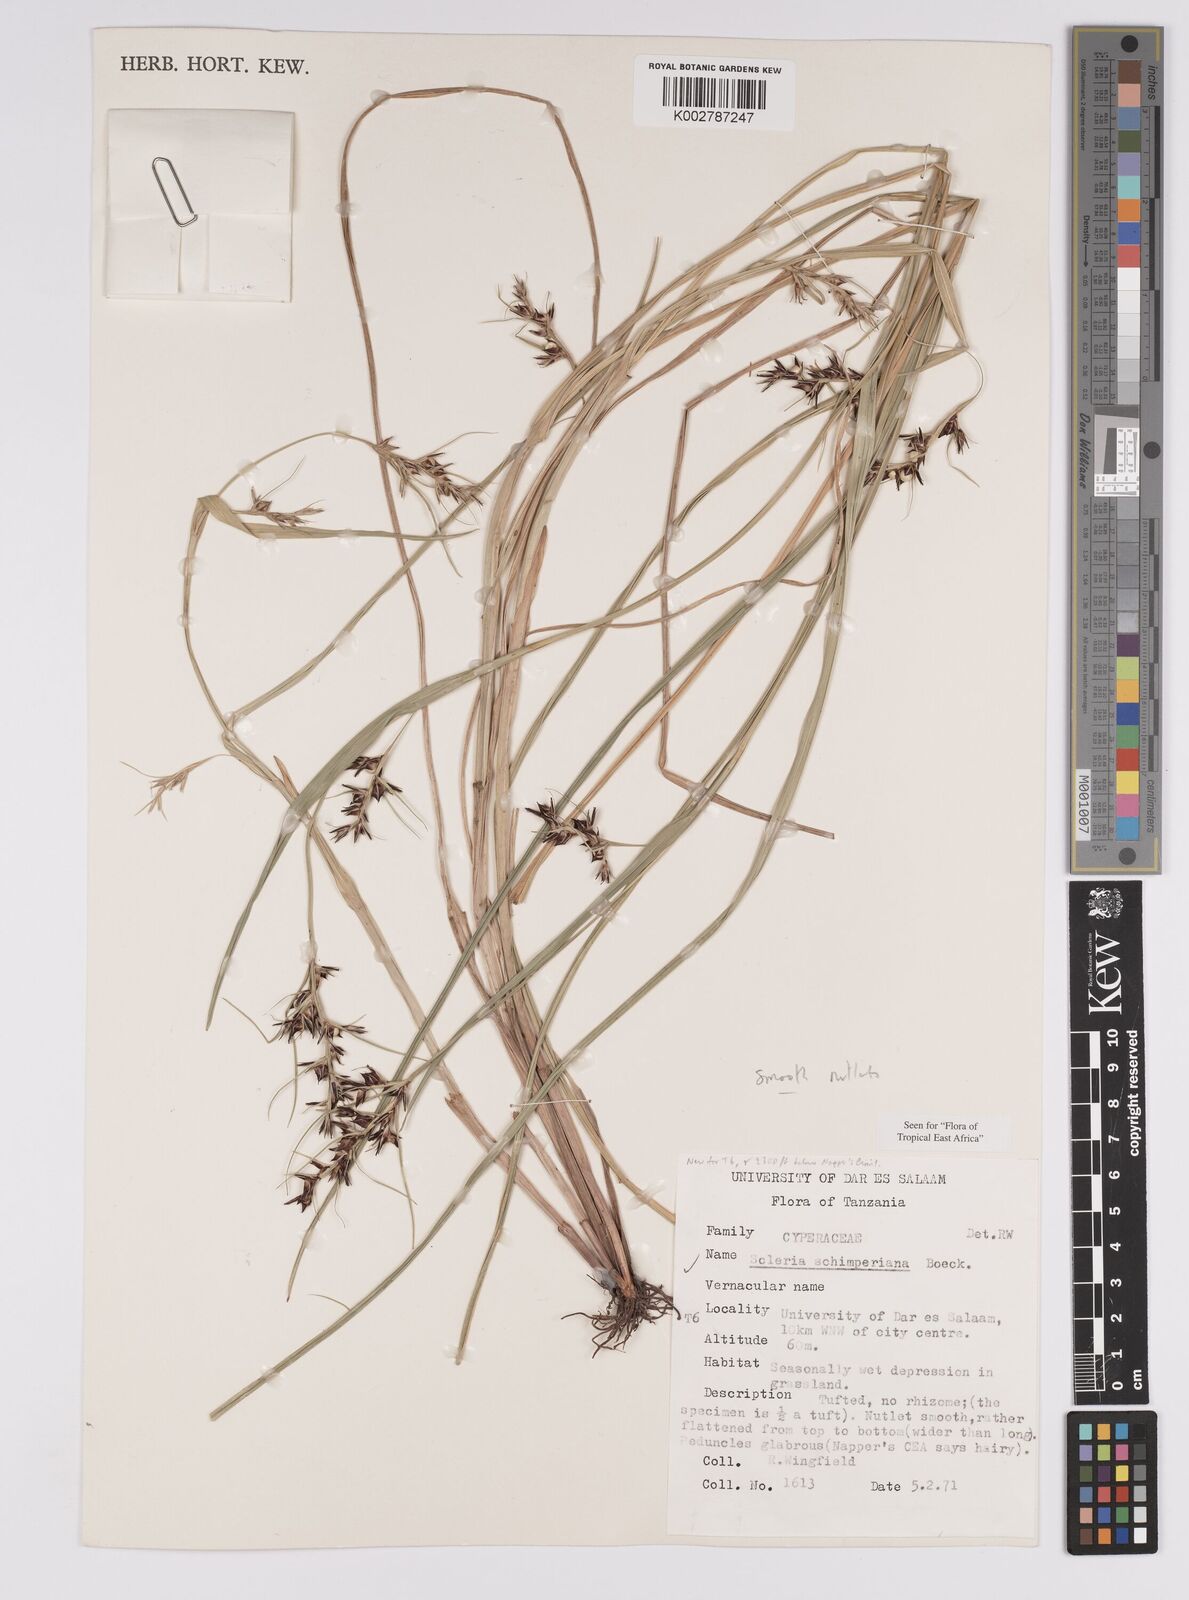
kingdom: Plantae
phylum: Tracheophyta
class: Liliopsida
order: Poales
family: Cyperaceae
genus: Scleria
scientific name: Scleria schimperiana
